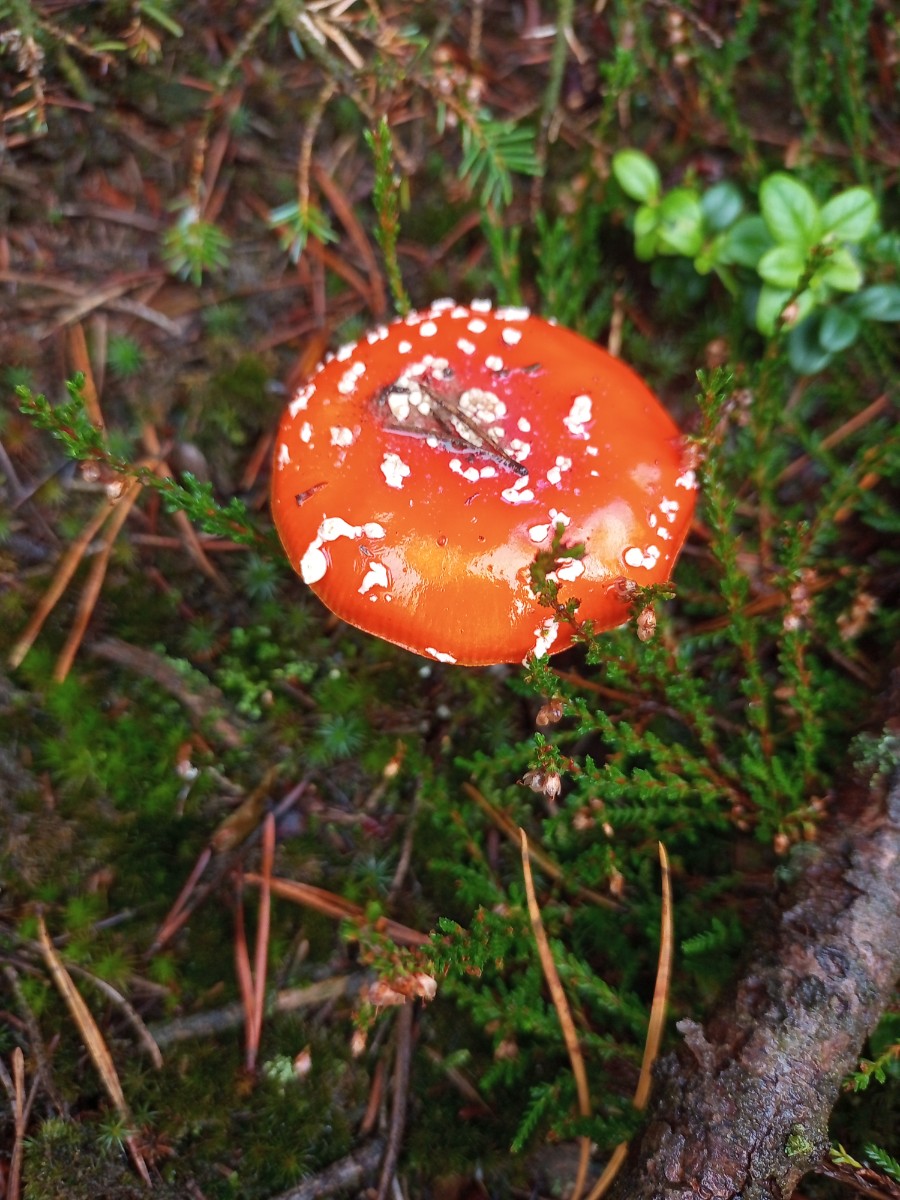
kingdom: Fungi
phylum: Basidiomycota
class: Agaricomycetes
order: Agaricales
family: Amanitaceae
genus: Amanita
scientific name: Amanita muscaria
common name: rød fluesvamp
